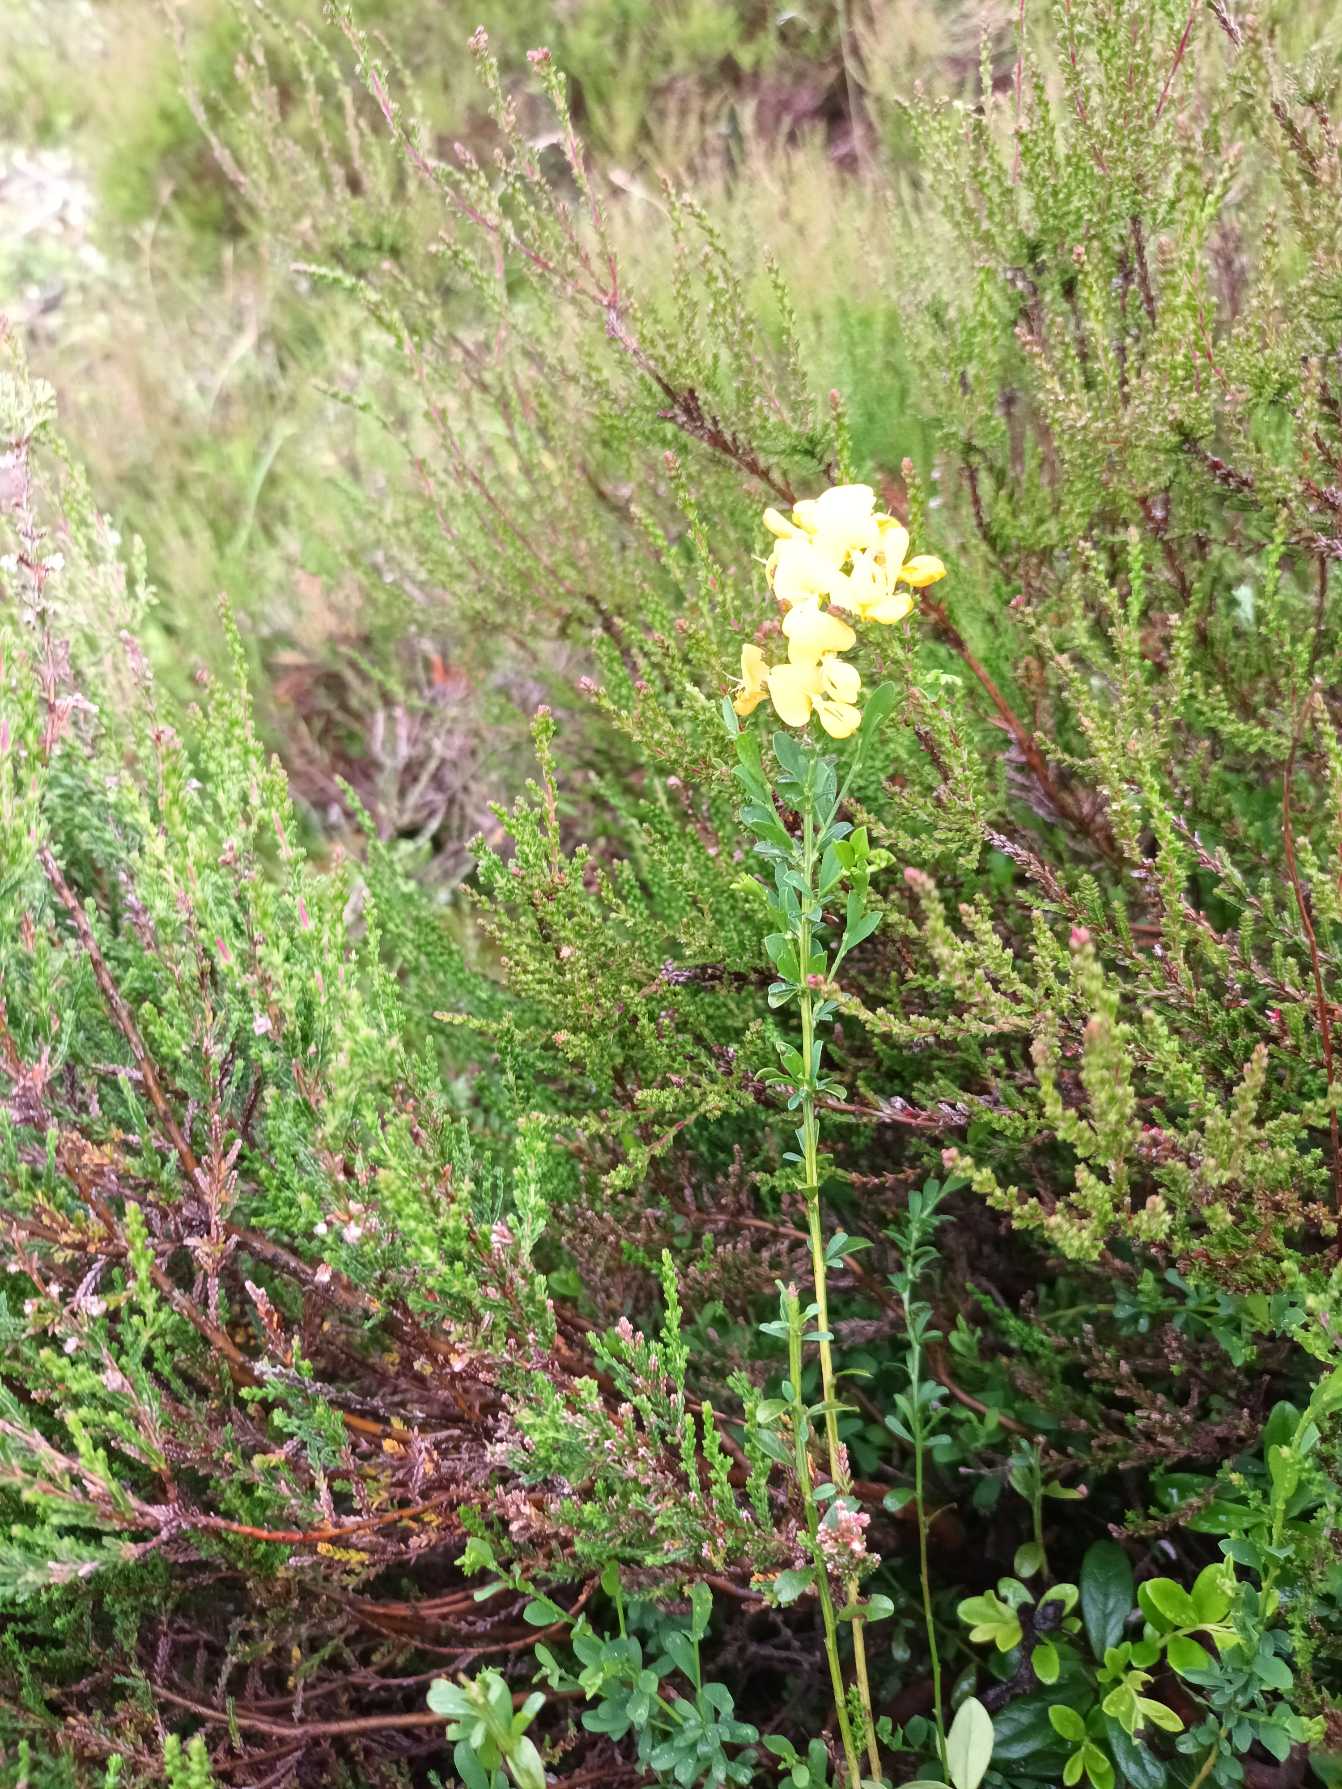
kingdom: Plantae
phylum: Tracheophyta
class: Magnoliopsida
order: Fabales
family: Fabaceae
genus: Genista
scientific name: Genista anglica
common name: Engelsk visse
